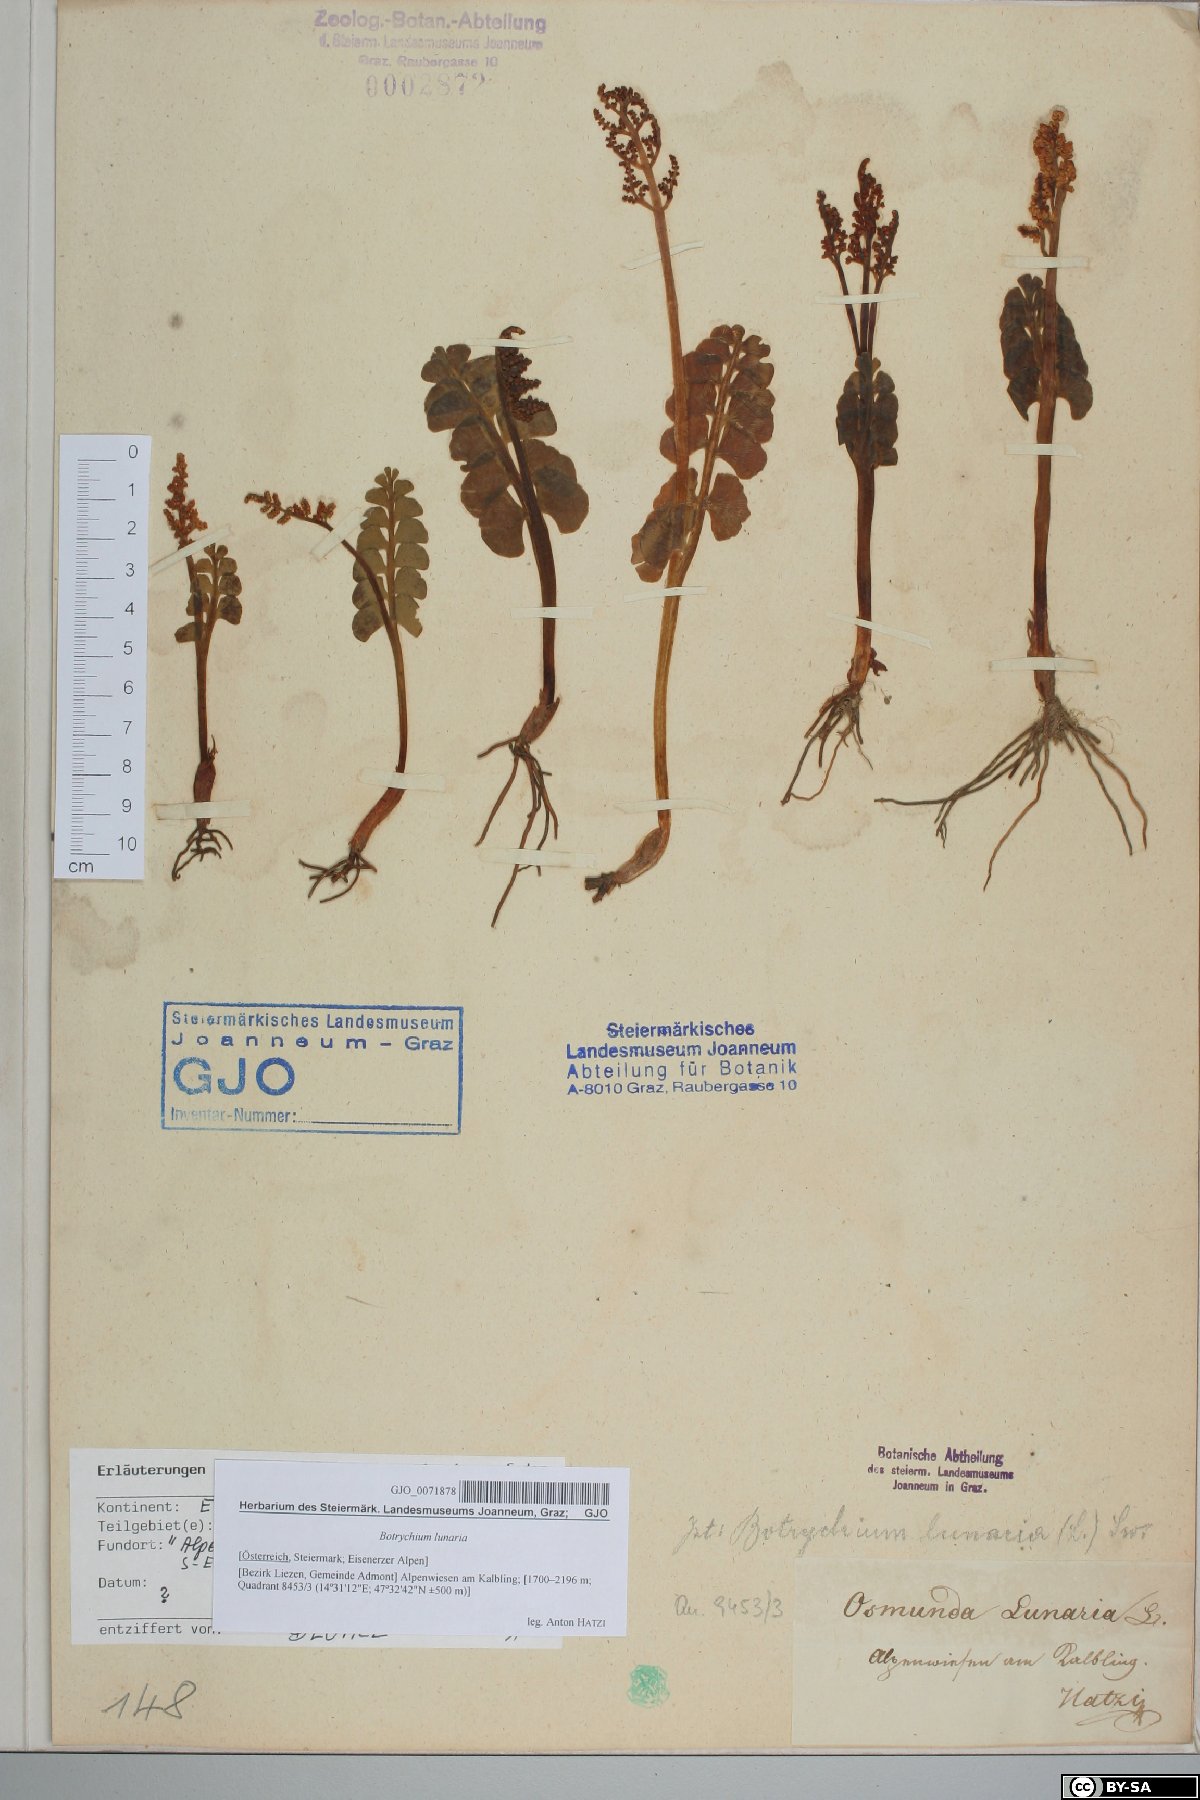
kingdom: Plantae
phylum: Tracheophyta
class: Polypodiopsida
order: Ophioglossales
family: Ophioglossaceae
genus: Botrychium
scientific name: Botrychium lunaria
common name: Moonwort
